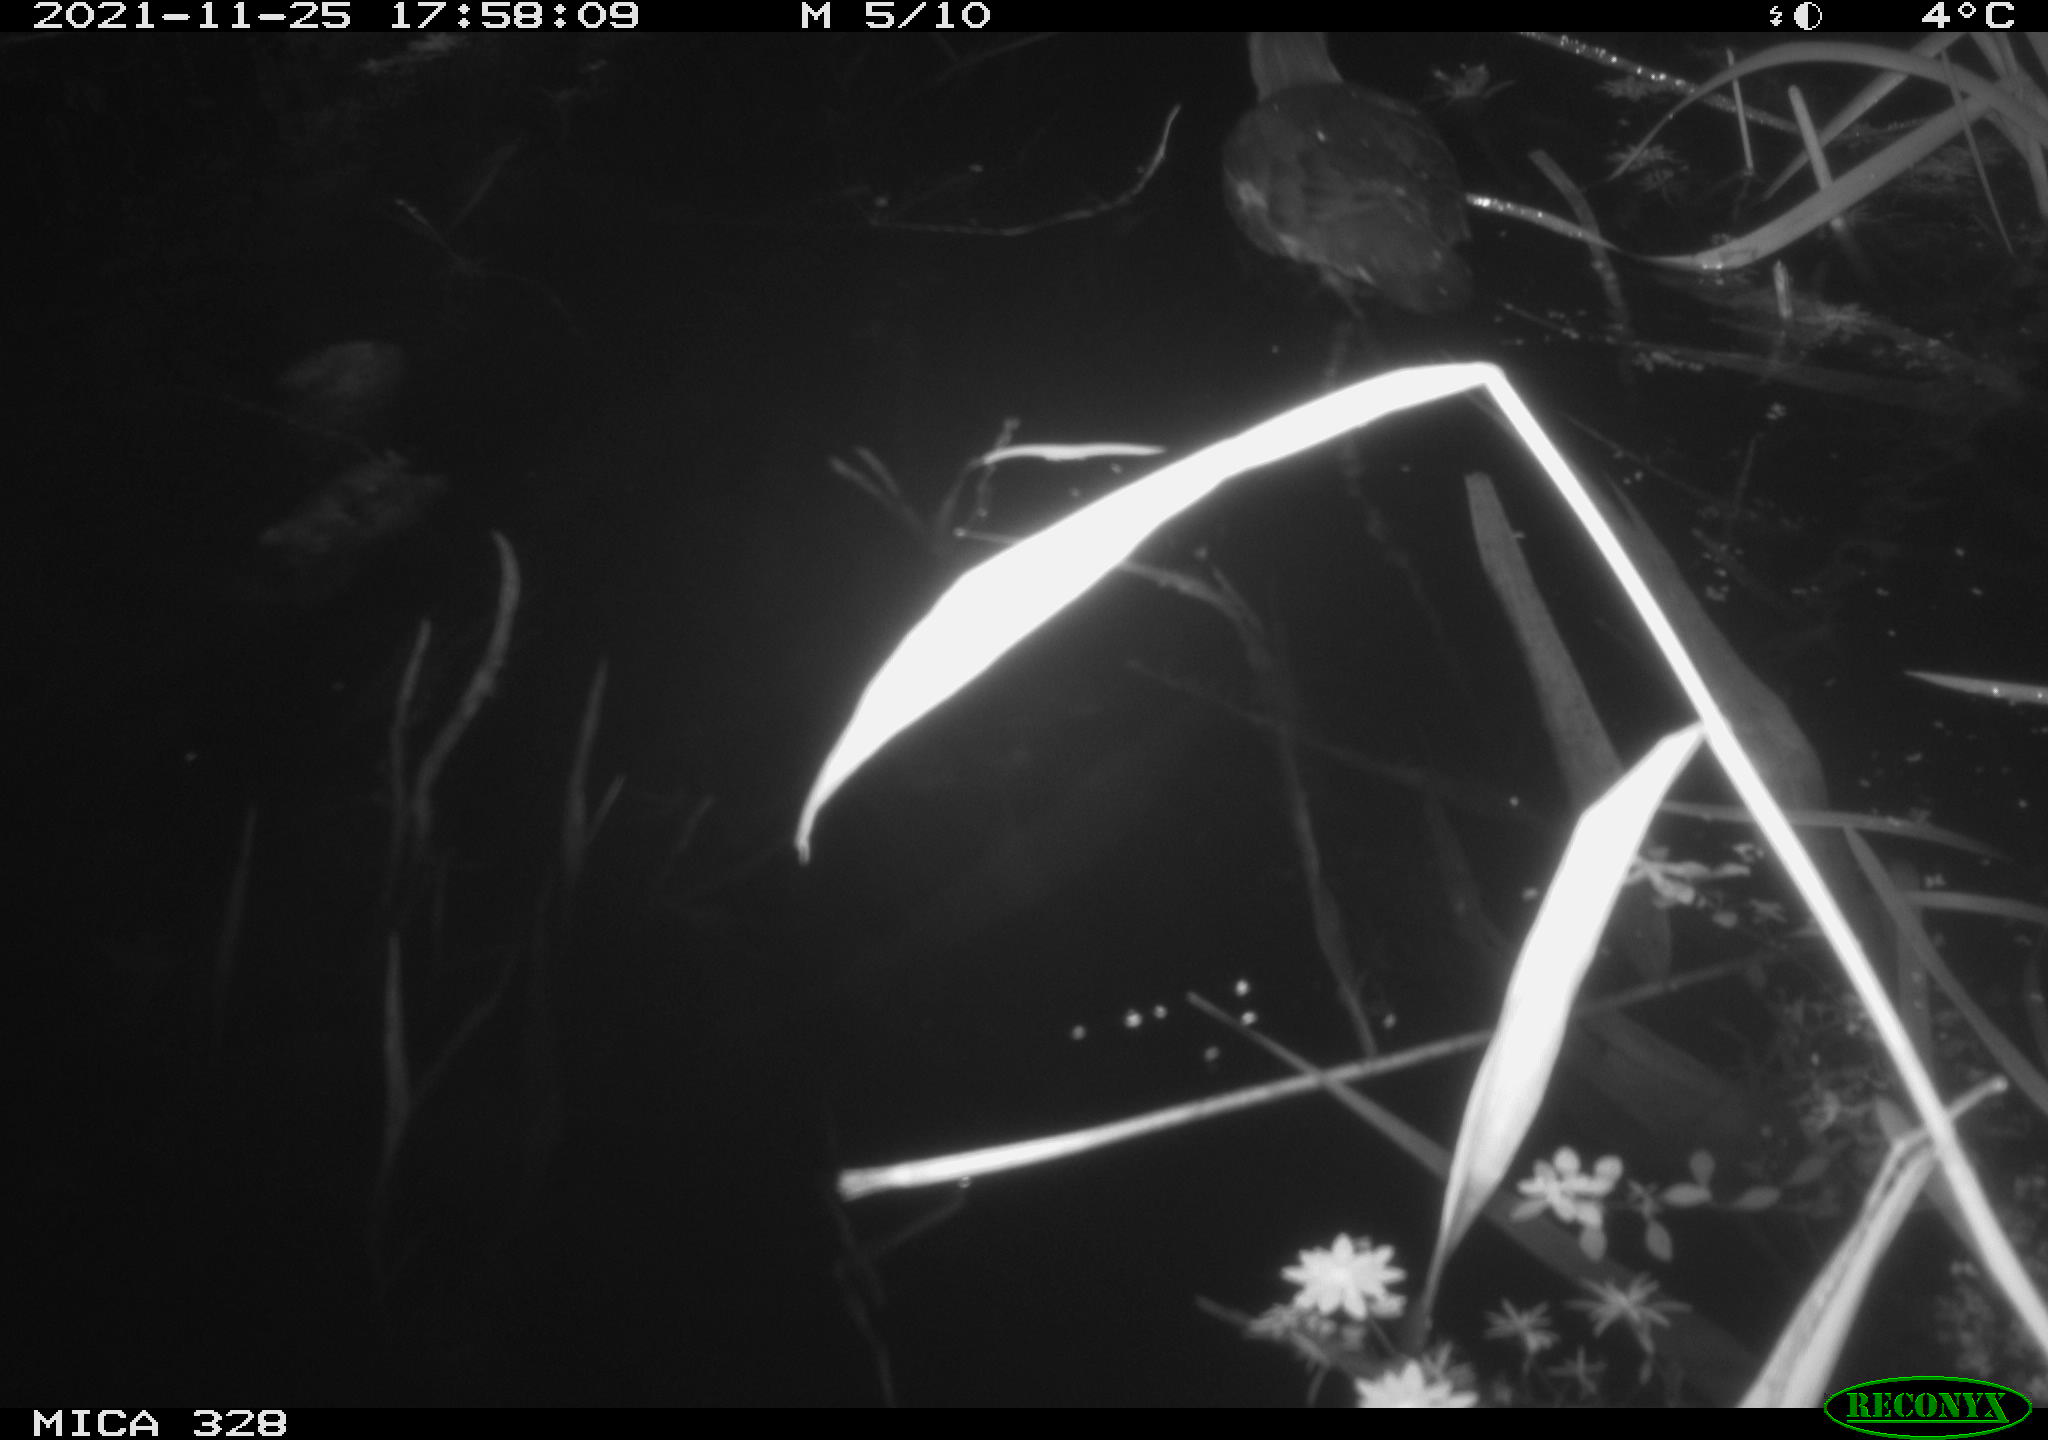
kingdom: Animalia
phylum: Chordata
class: Aves
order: Gruiformes
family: Rallidae
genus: Gallinula
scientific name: Gallinula chloropus
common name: Common moorhen
